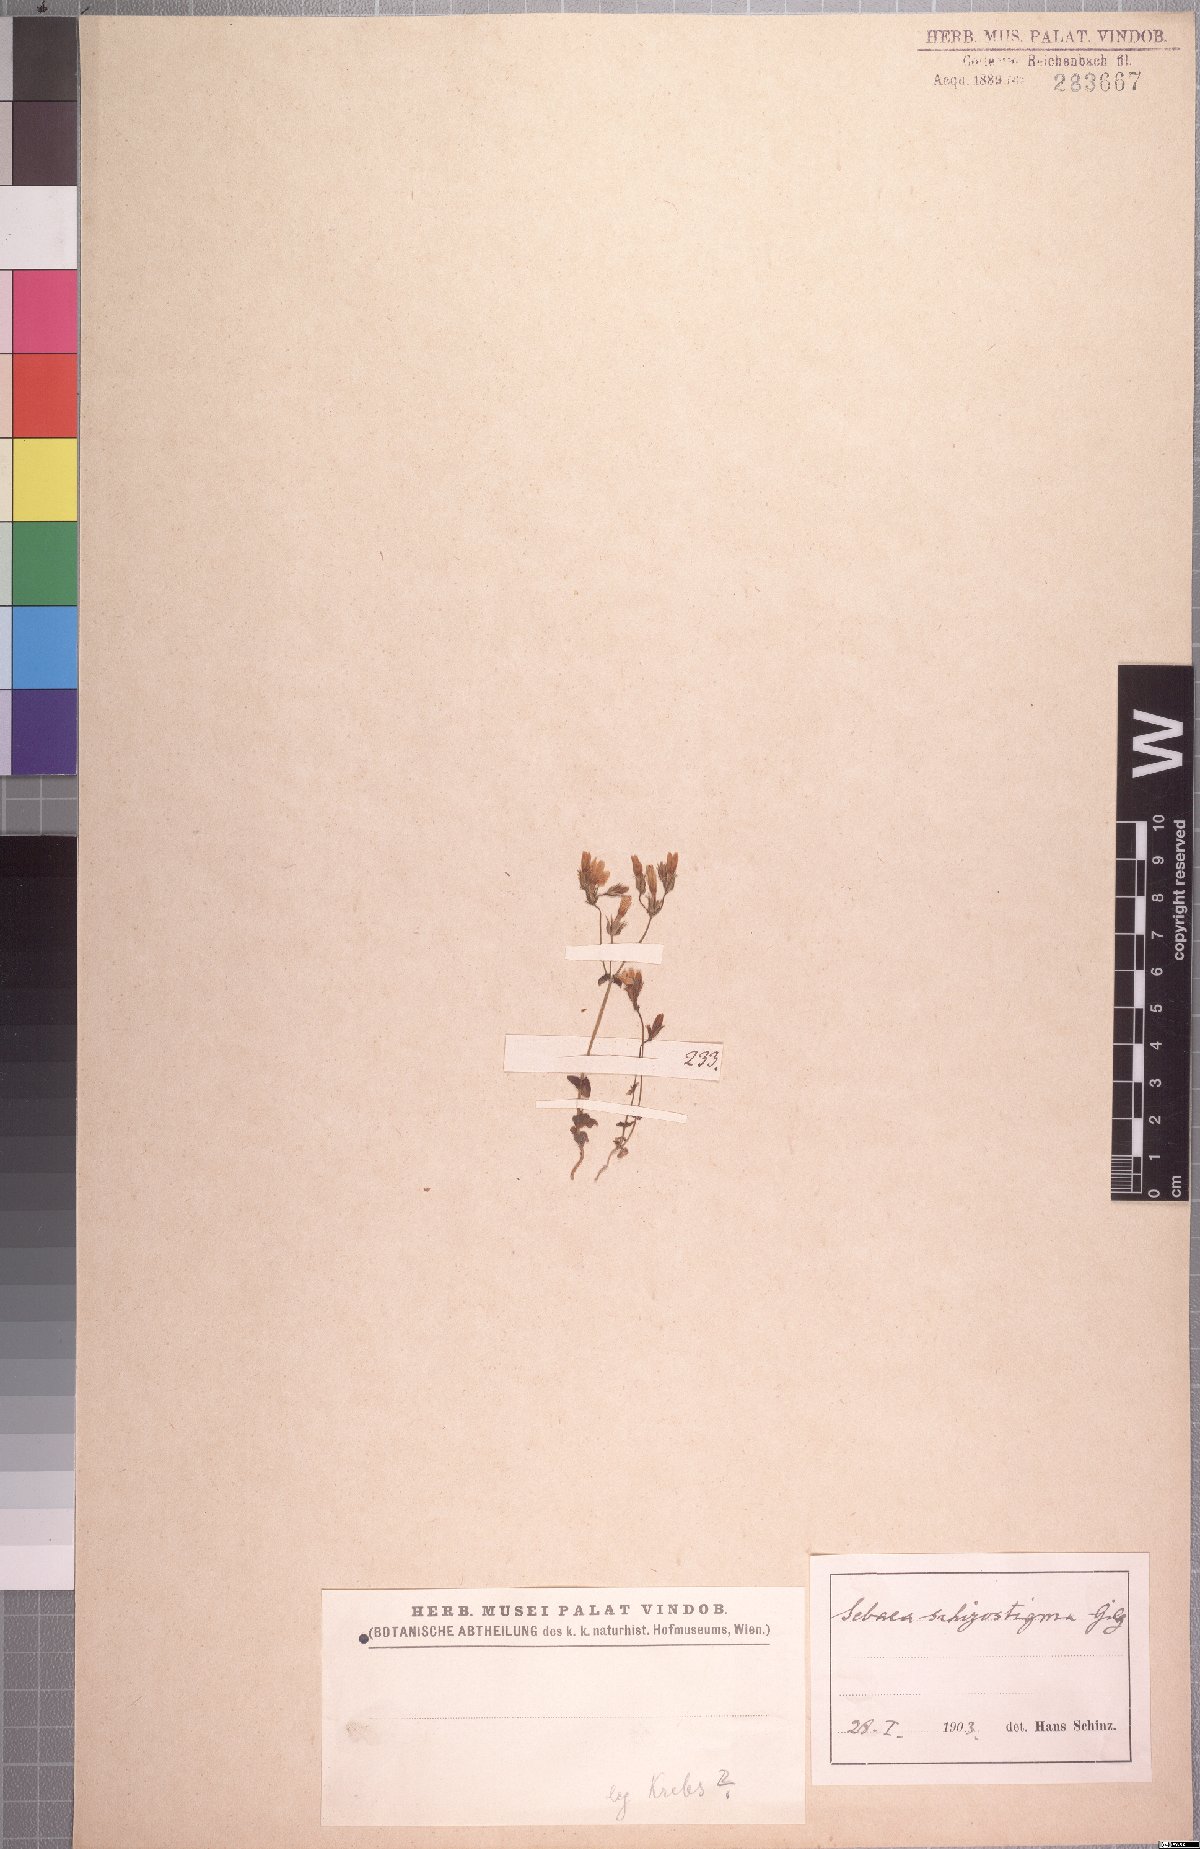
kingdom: Plantae
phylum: Tracheophyta
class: Magnoliopsida
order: Gentianales
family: Gentianaceae
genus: Sebaea
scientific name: Sebaea grisebachiana
